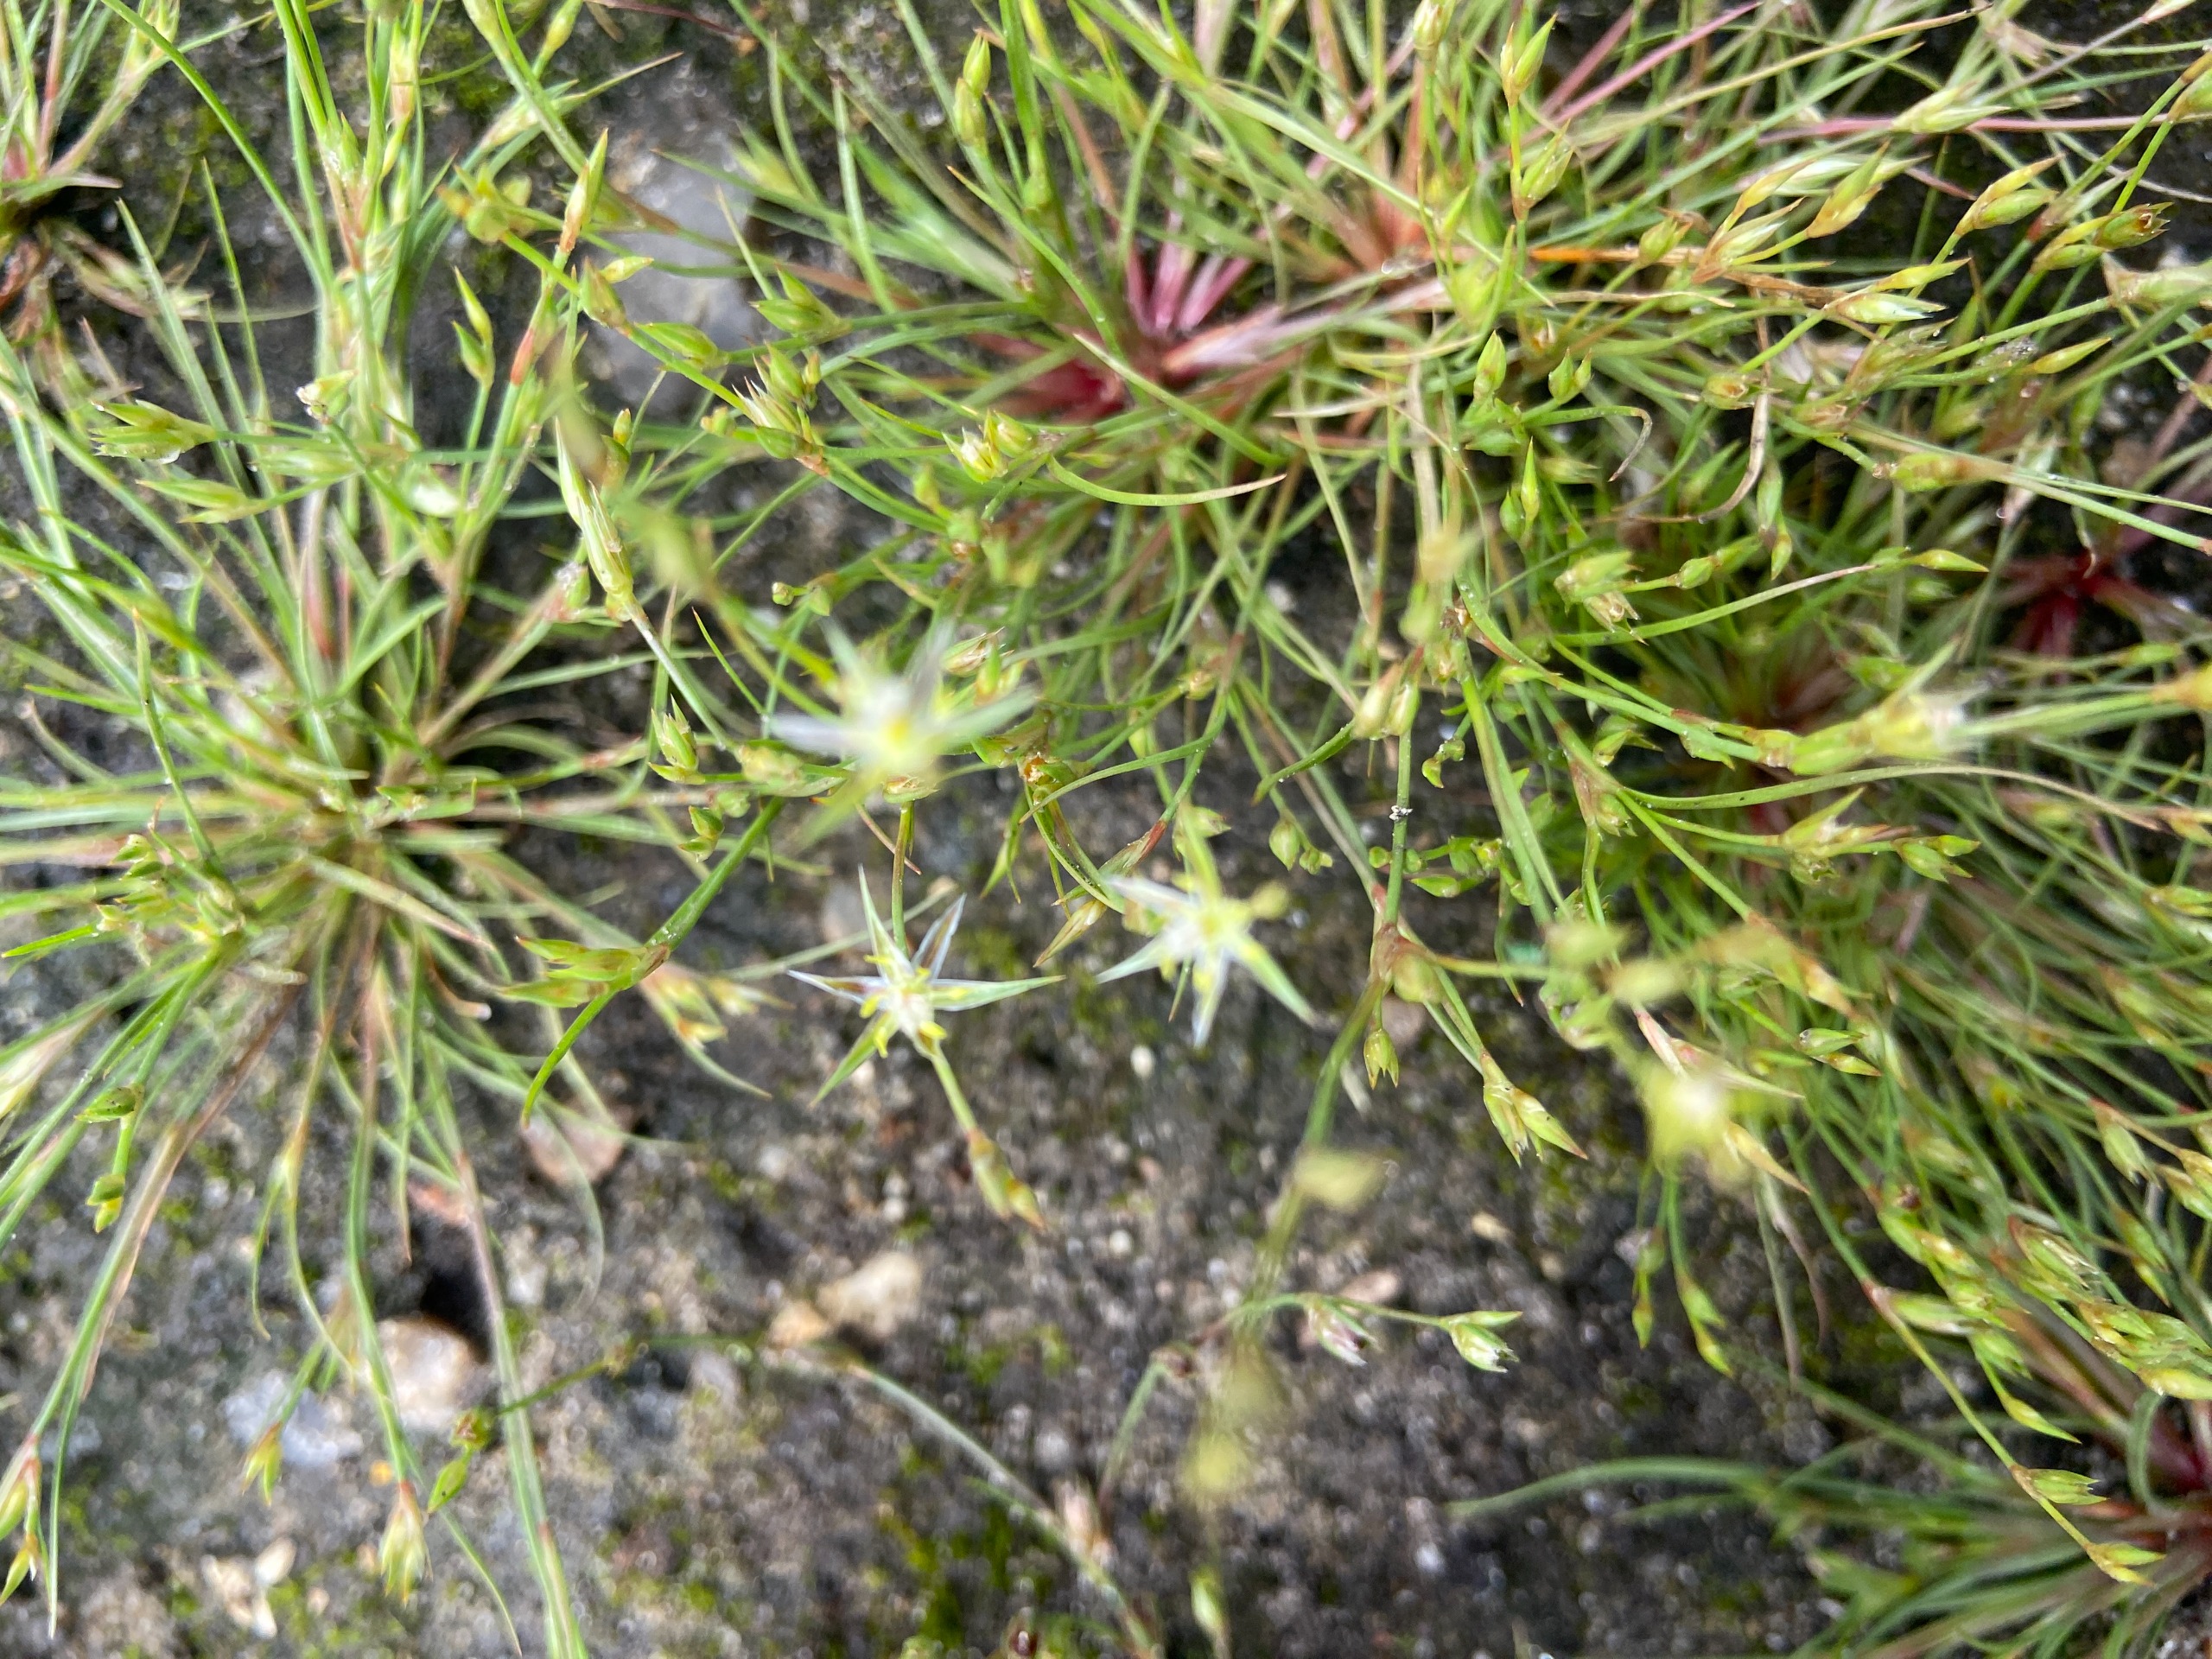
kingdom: Plantae
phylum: Tracheophyta
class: Liliopsida
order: Poales
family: Juncaceae
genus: Juncus
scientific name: Juncus foliosus
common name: Stribet siv
